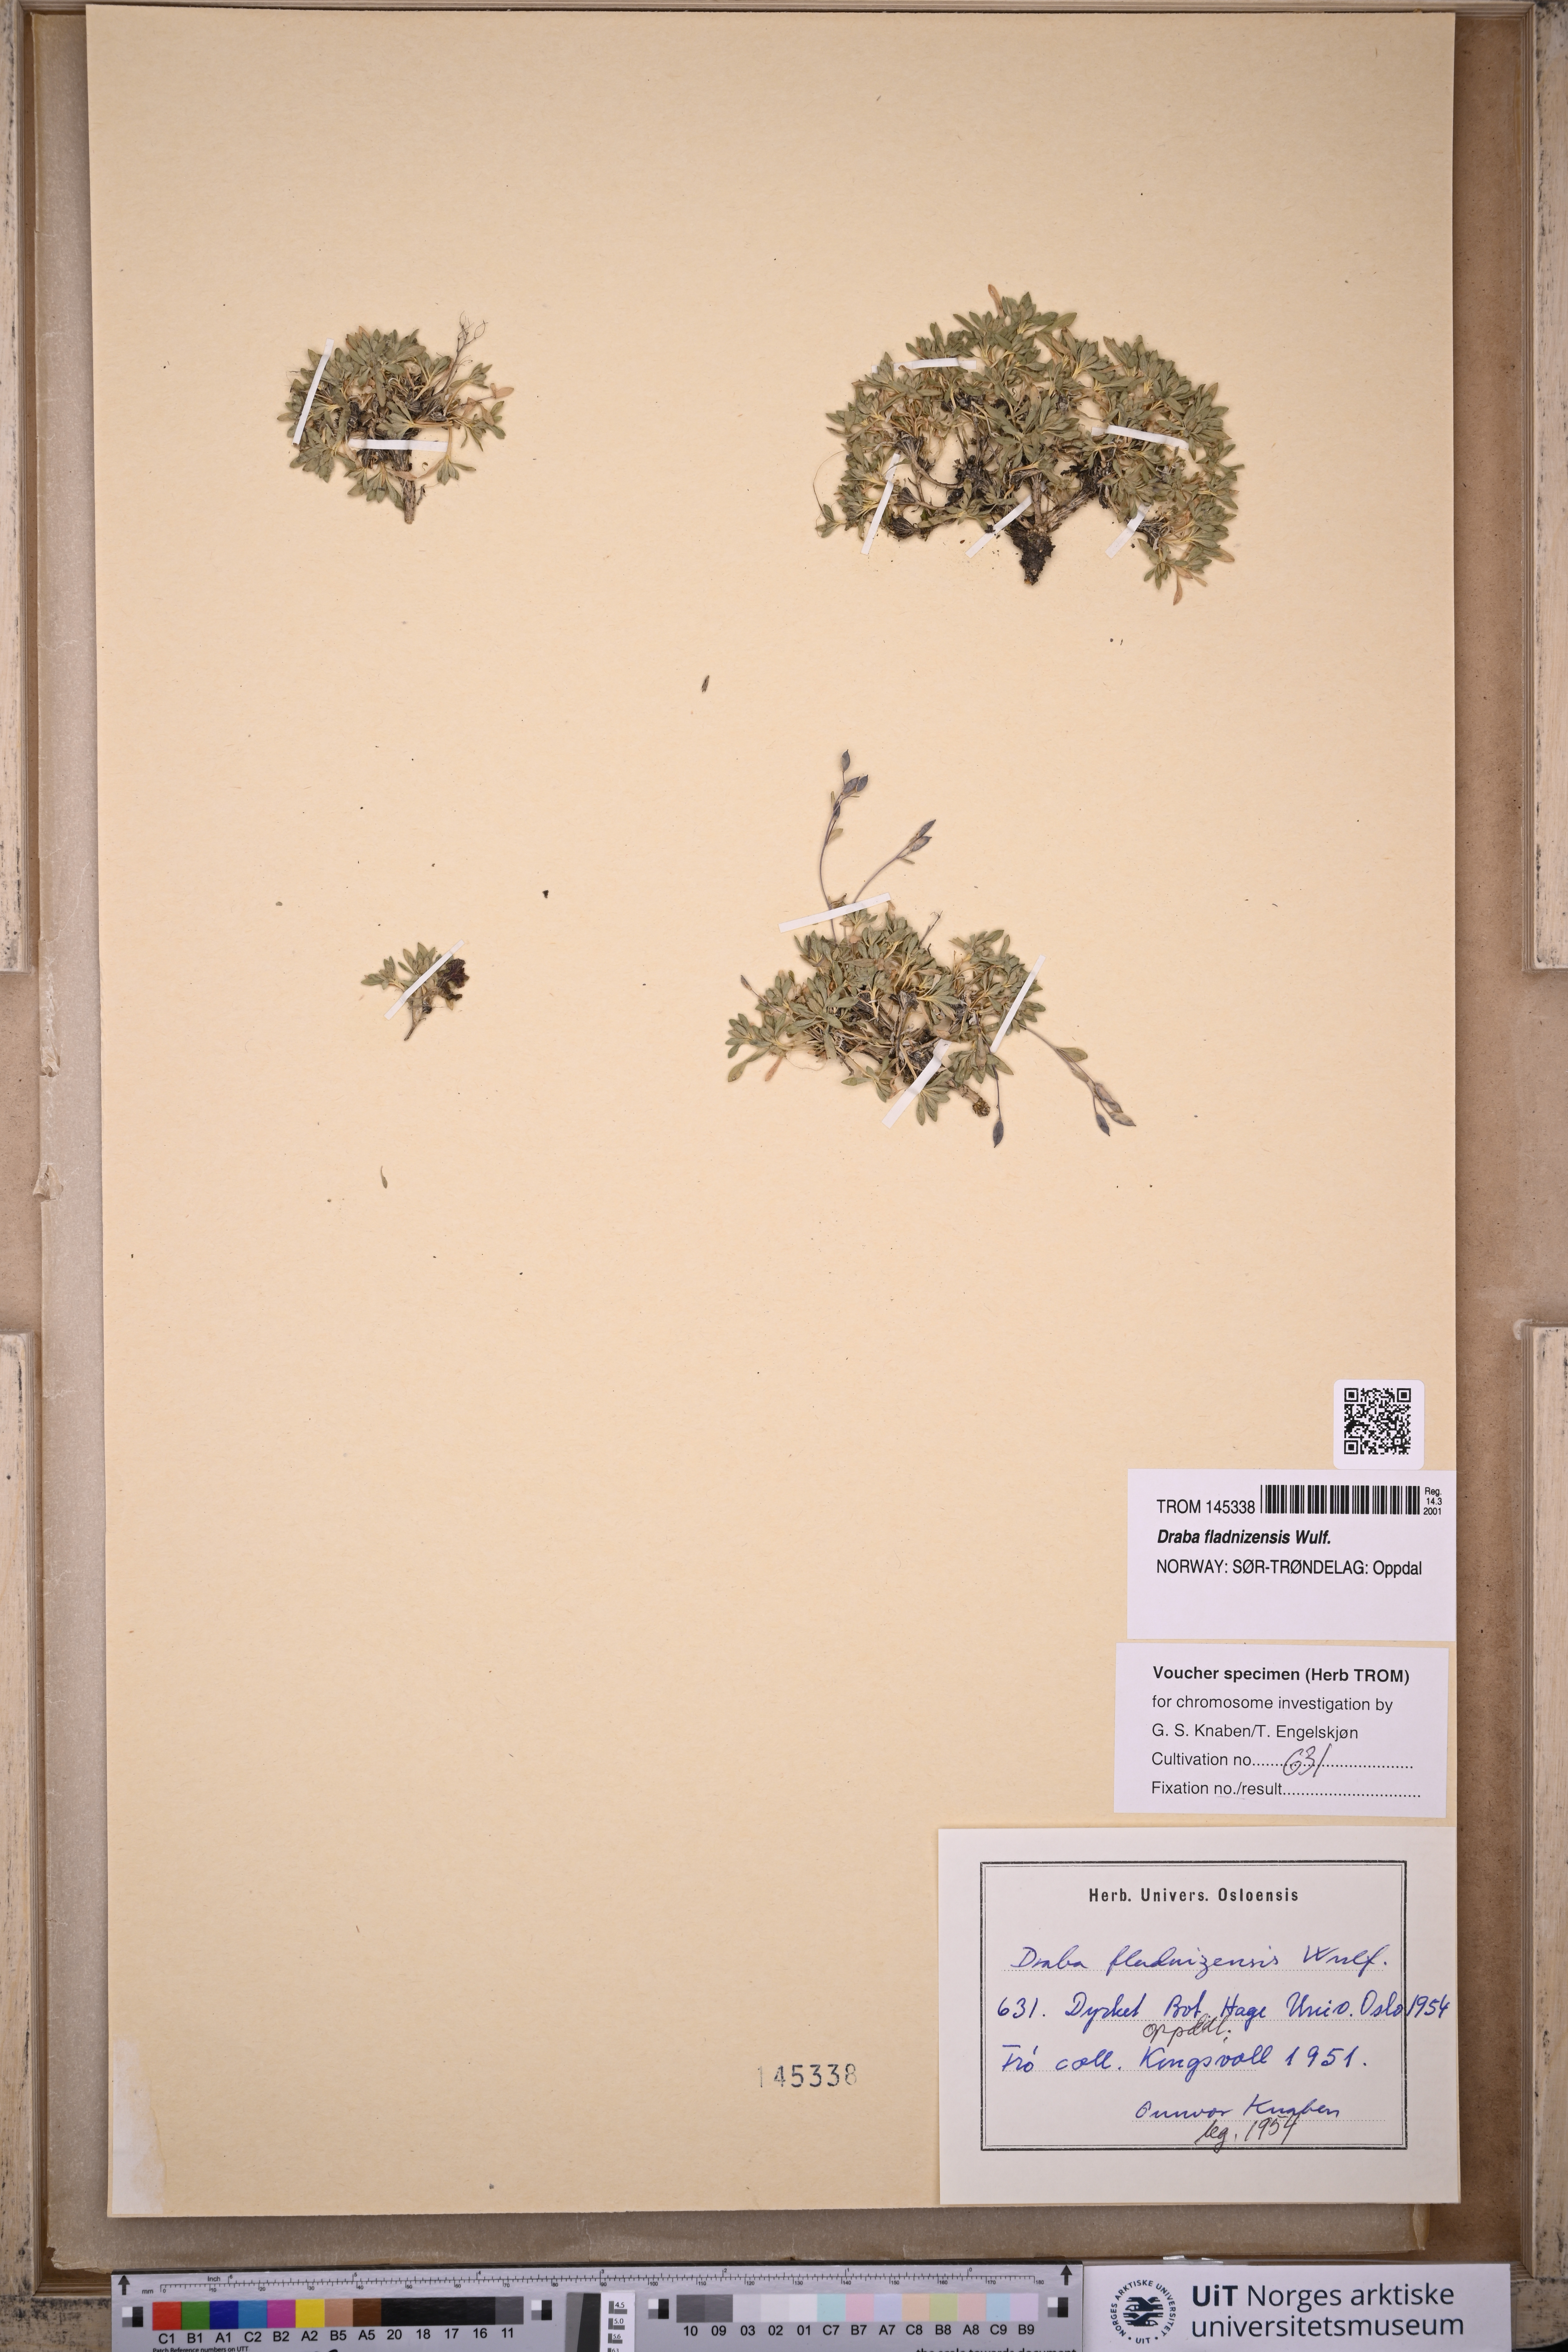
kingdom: Plantae
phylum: Tracheophyta
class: Magnoliopsida
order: Brassicales
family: Brassicaceae
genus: Draba
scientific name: Draba fladnizensis
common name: Austrian draba
